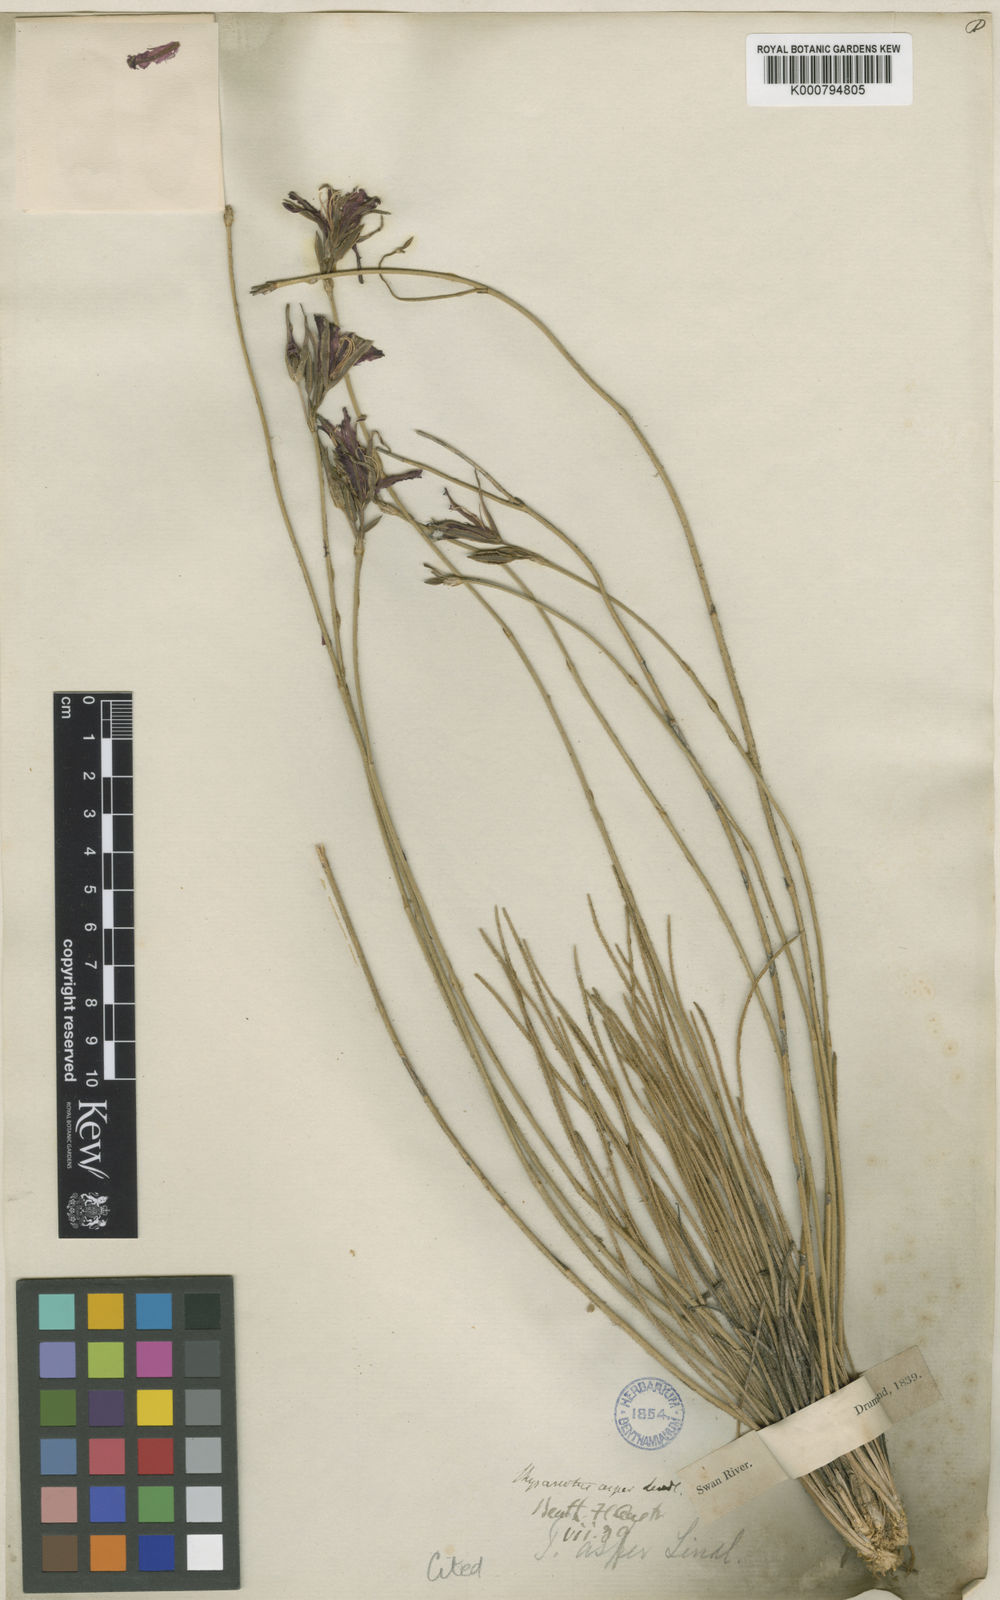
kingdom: Plantae
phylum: Tracheophyta
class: Liliopsida
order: Asparagales
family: Asparagaceae
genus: Thysanotus
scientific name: Thysanotus asper
